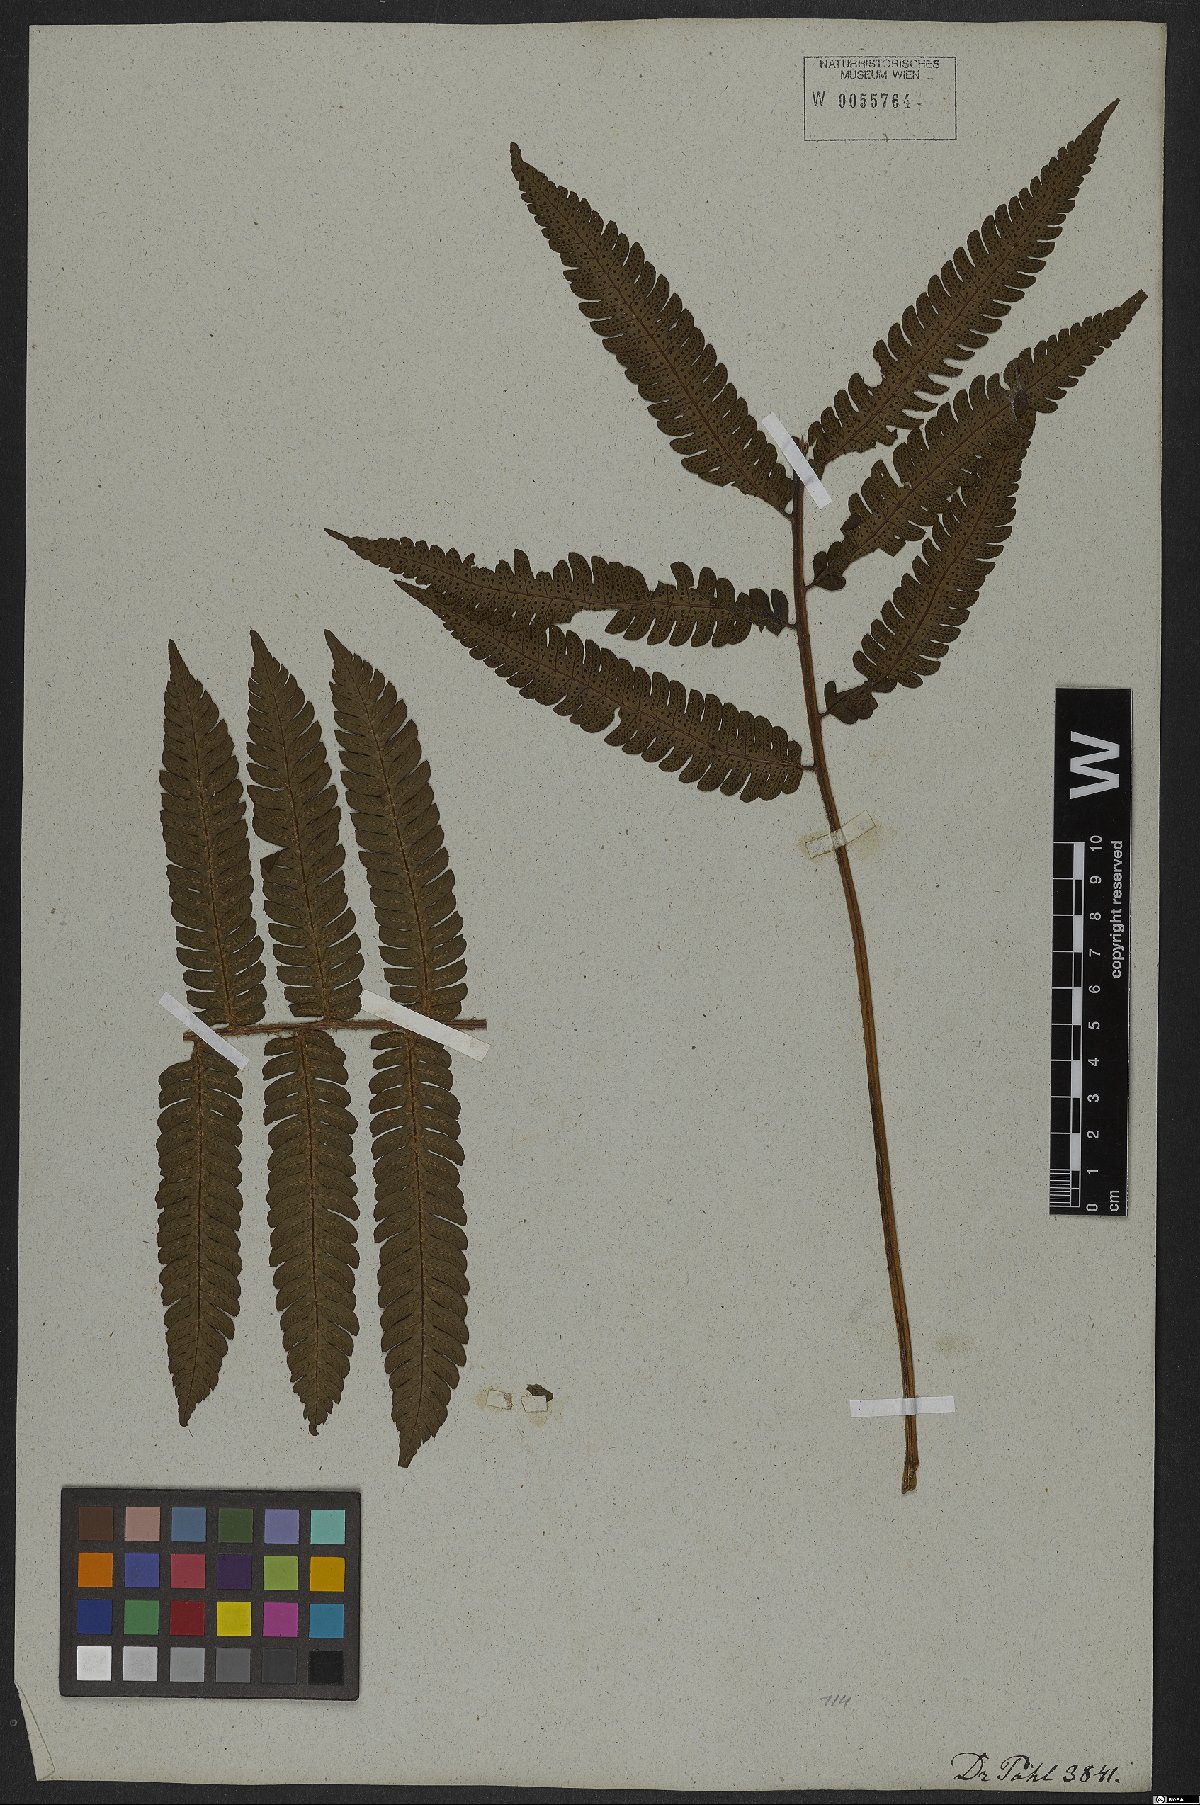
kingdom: Plantae
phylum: Tracheophyta
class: Polypodiopsida
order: Polypodiales
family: Dryopteridaceae
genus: Ctenitis
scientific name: Ctenitis aspidioides
